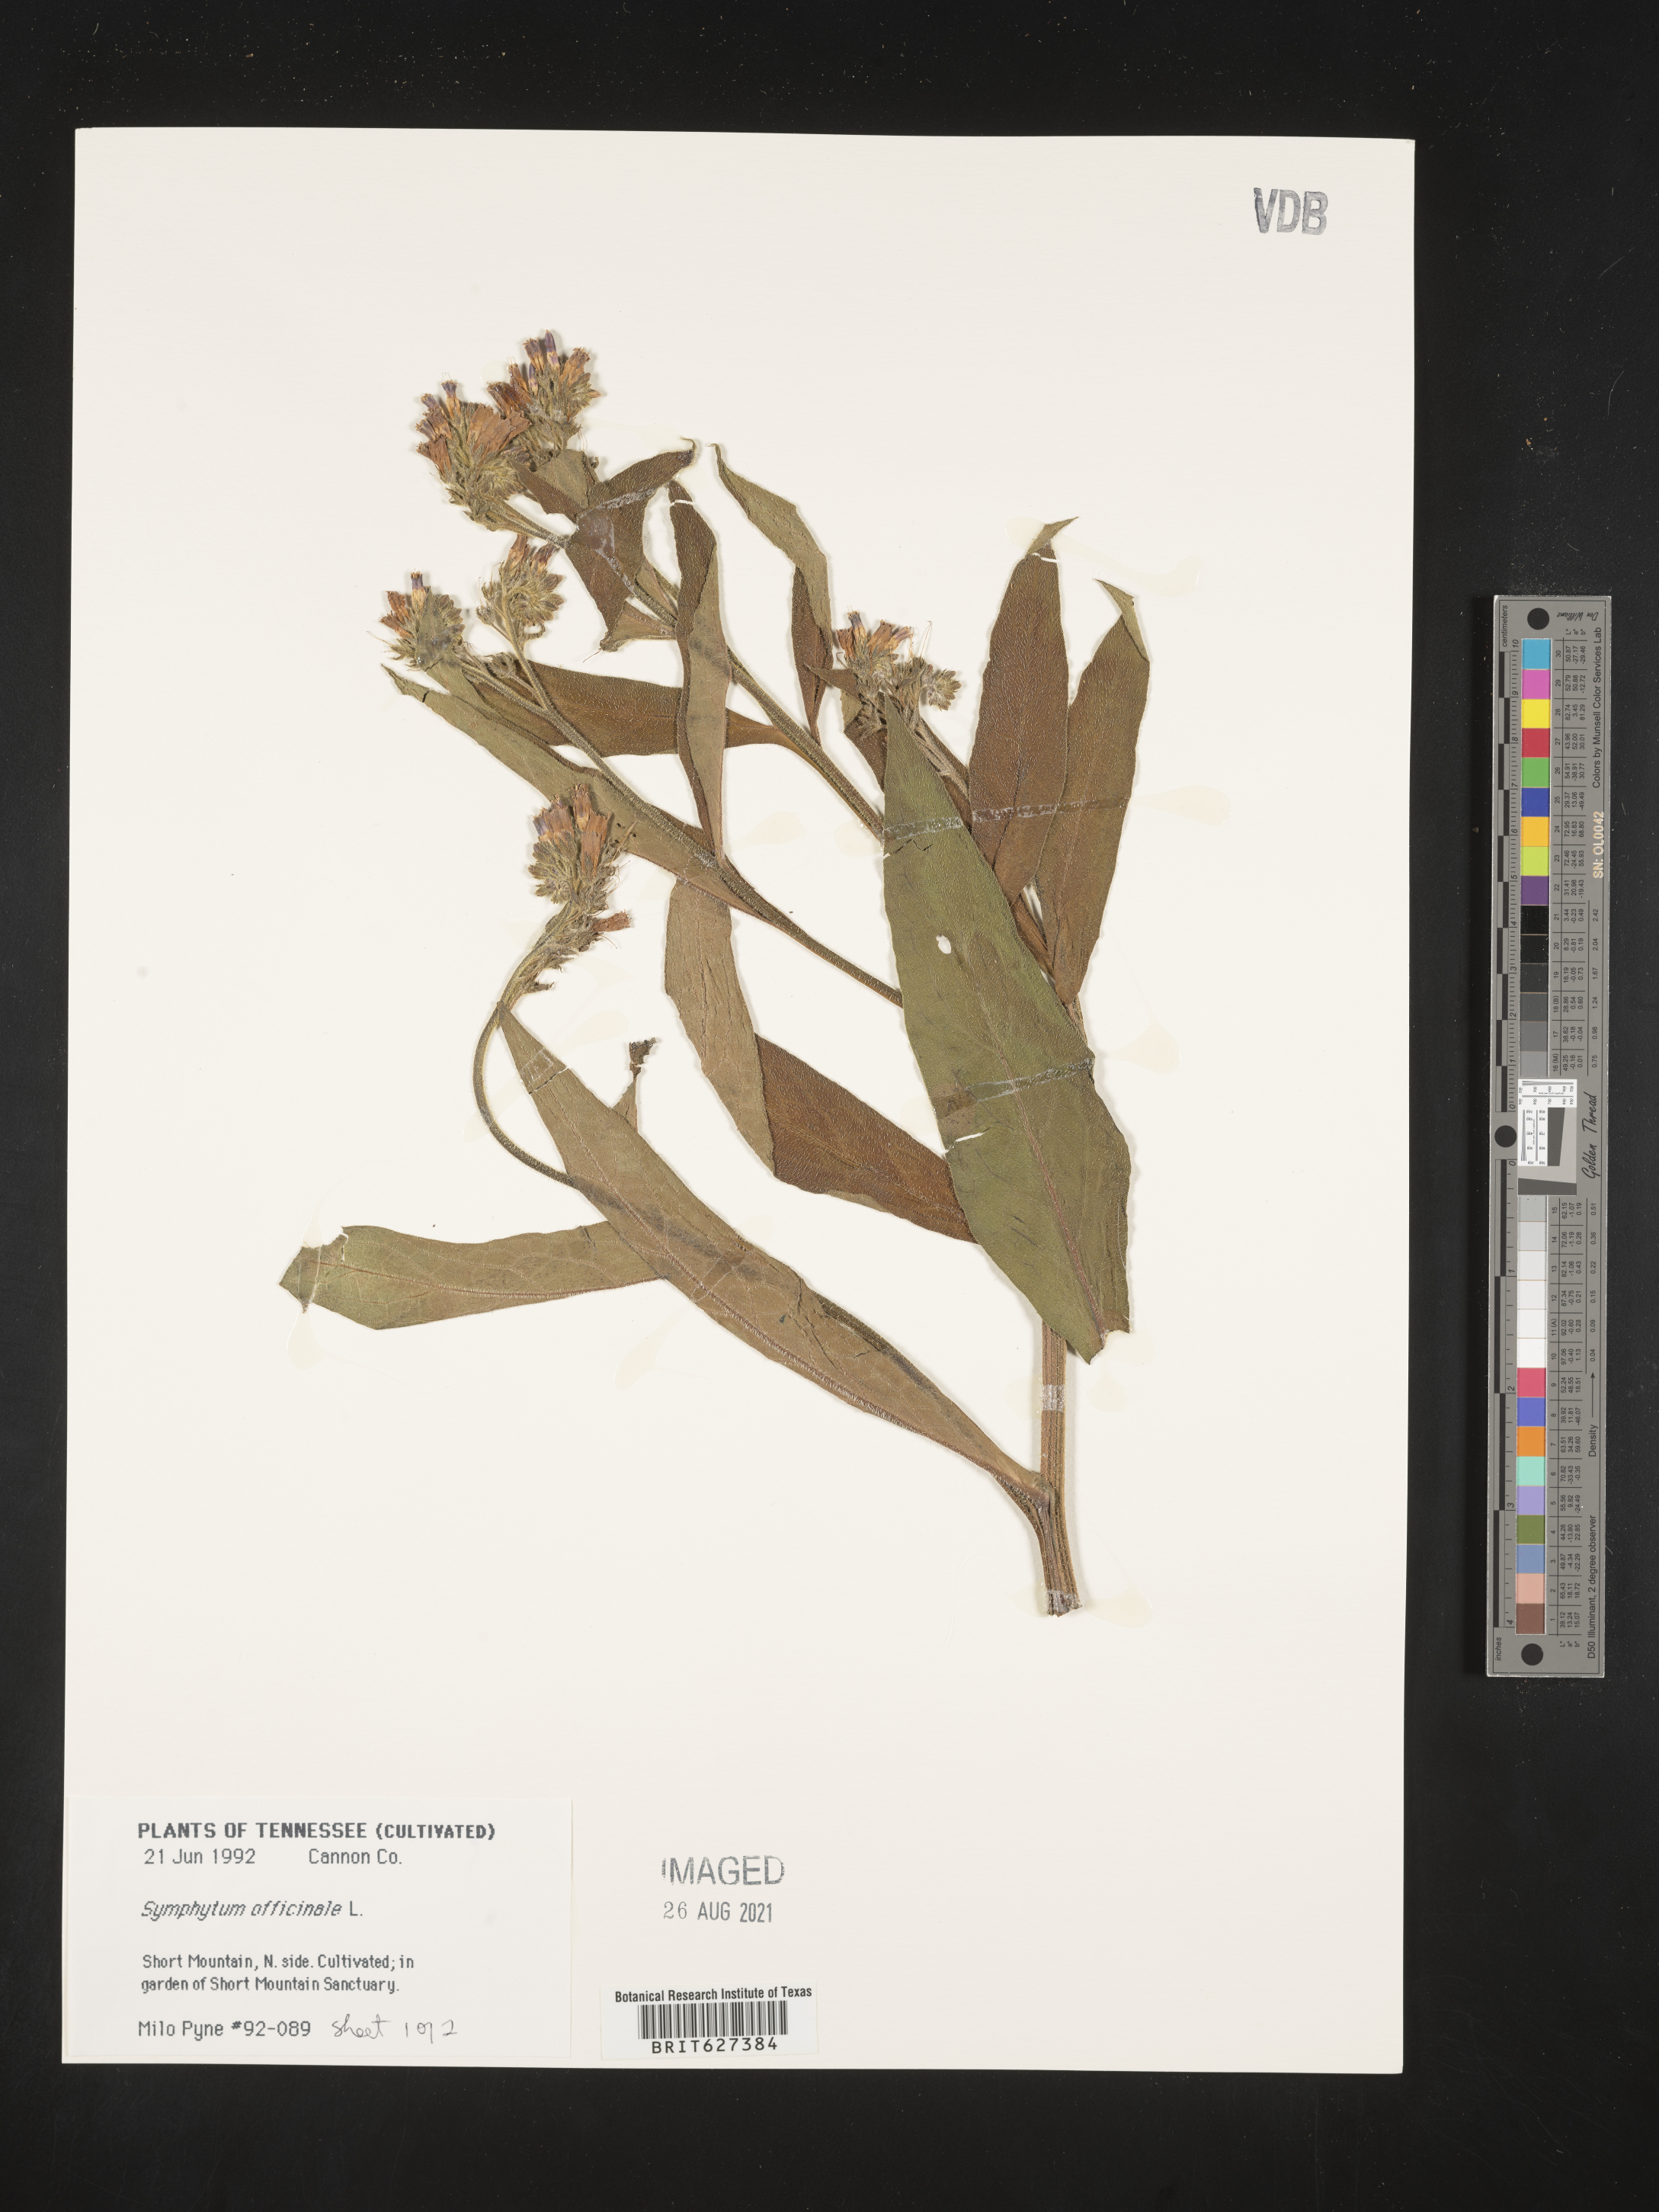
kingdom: Plantae
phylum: Tracheophyta
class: Magnoliopsida
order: Boraginales
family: Boraginaceae
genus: Symphytum
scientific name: Symphytum officinale
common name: Common comfrey
